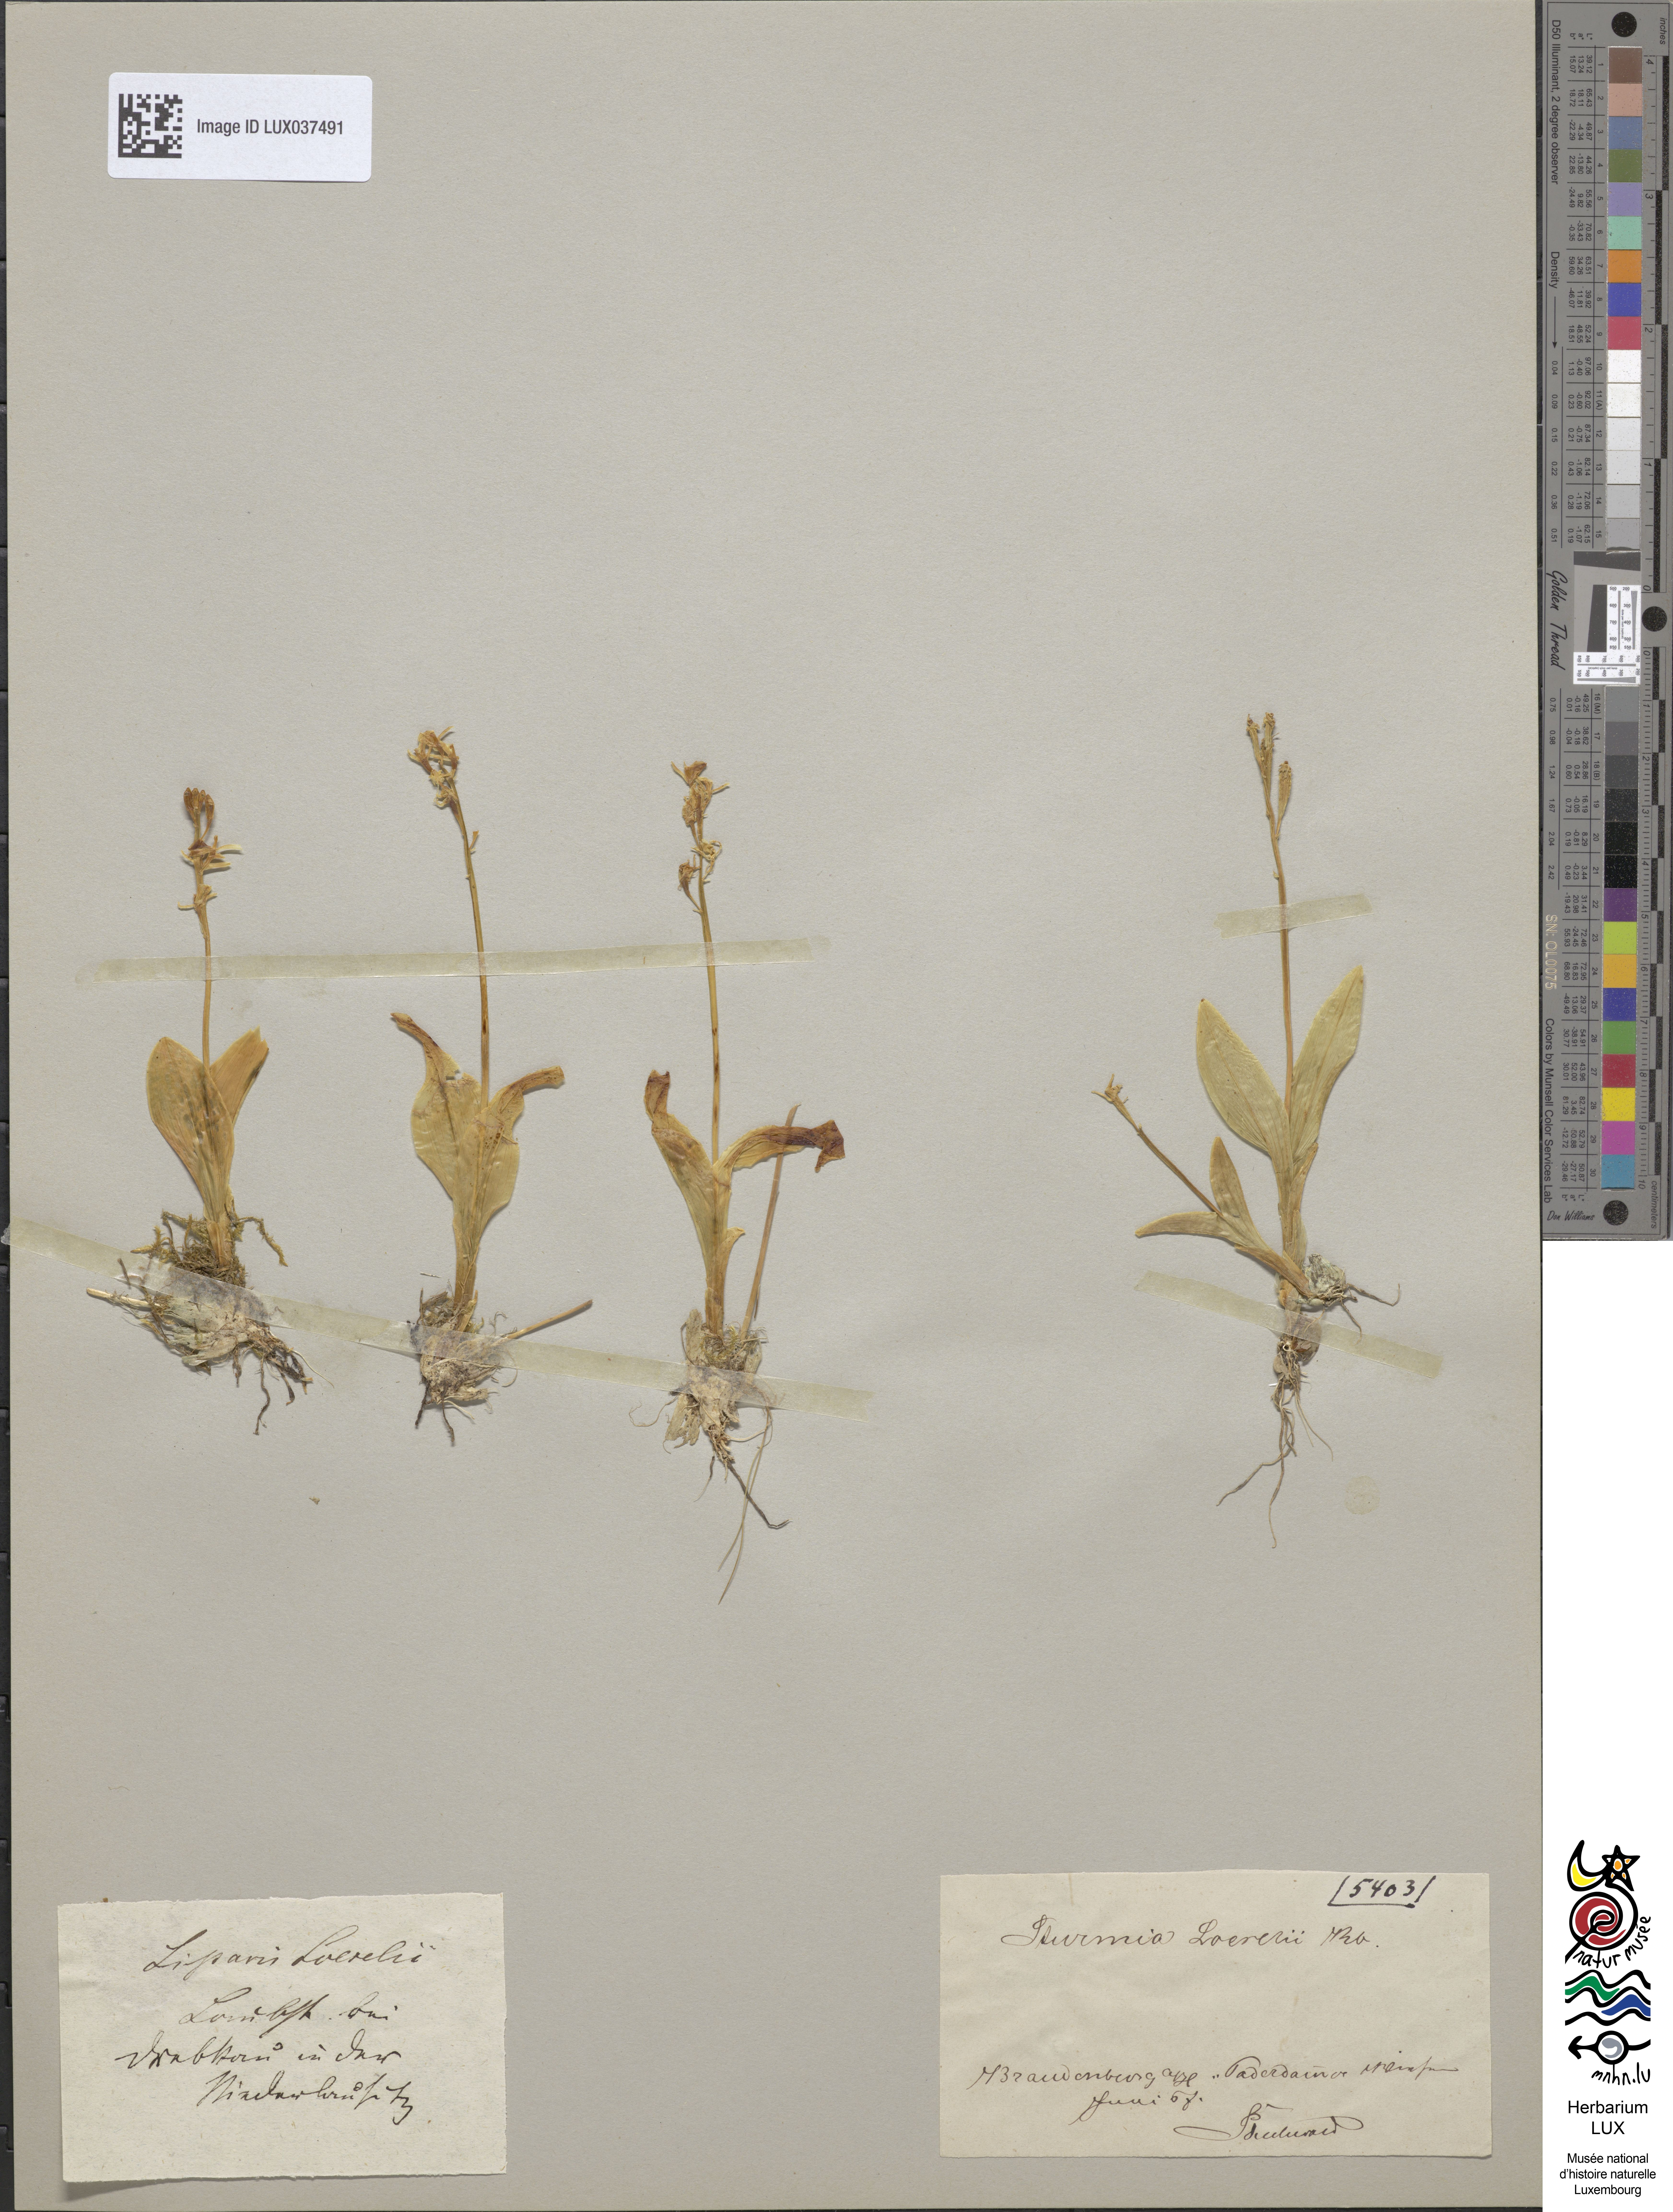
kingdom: Animalia
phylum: Arthropoda
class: Insecta
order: Coleoptera
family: Curculionidae
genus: Liparis
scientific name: Liparis loeselii
